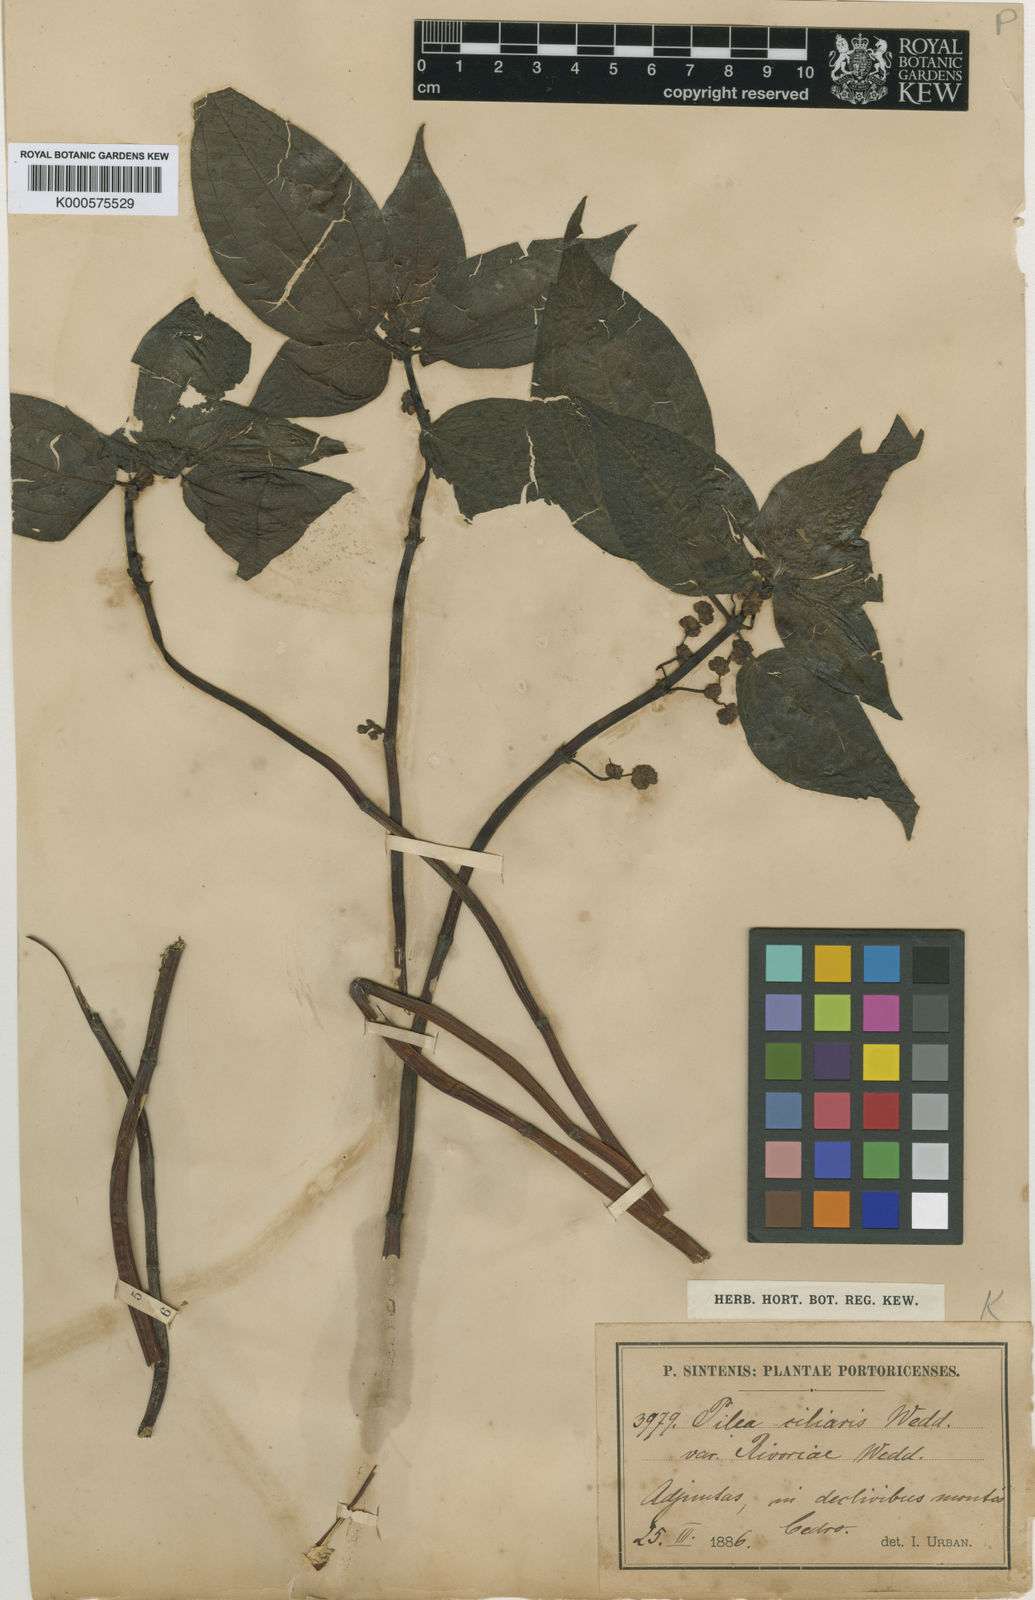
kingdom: Plantae
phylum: Tracheophyta
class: Magnoliopsida
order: Rosales
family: Urticaceae
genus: Pilea
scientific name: Pilea parietaria
